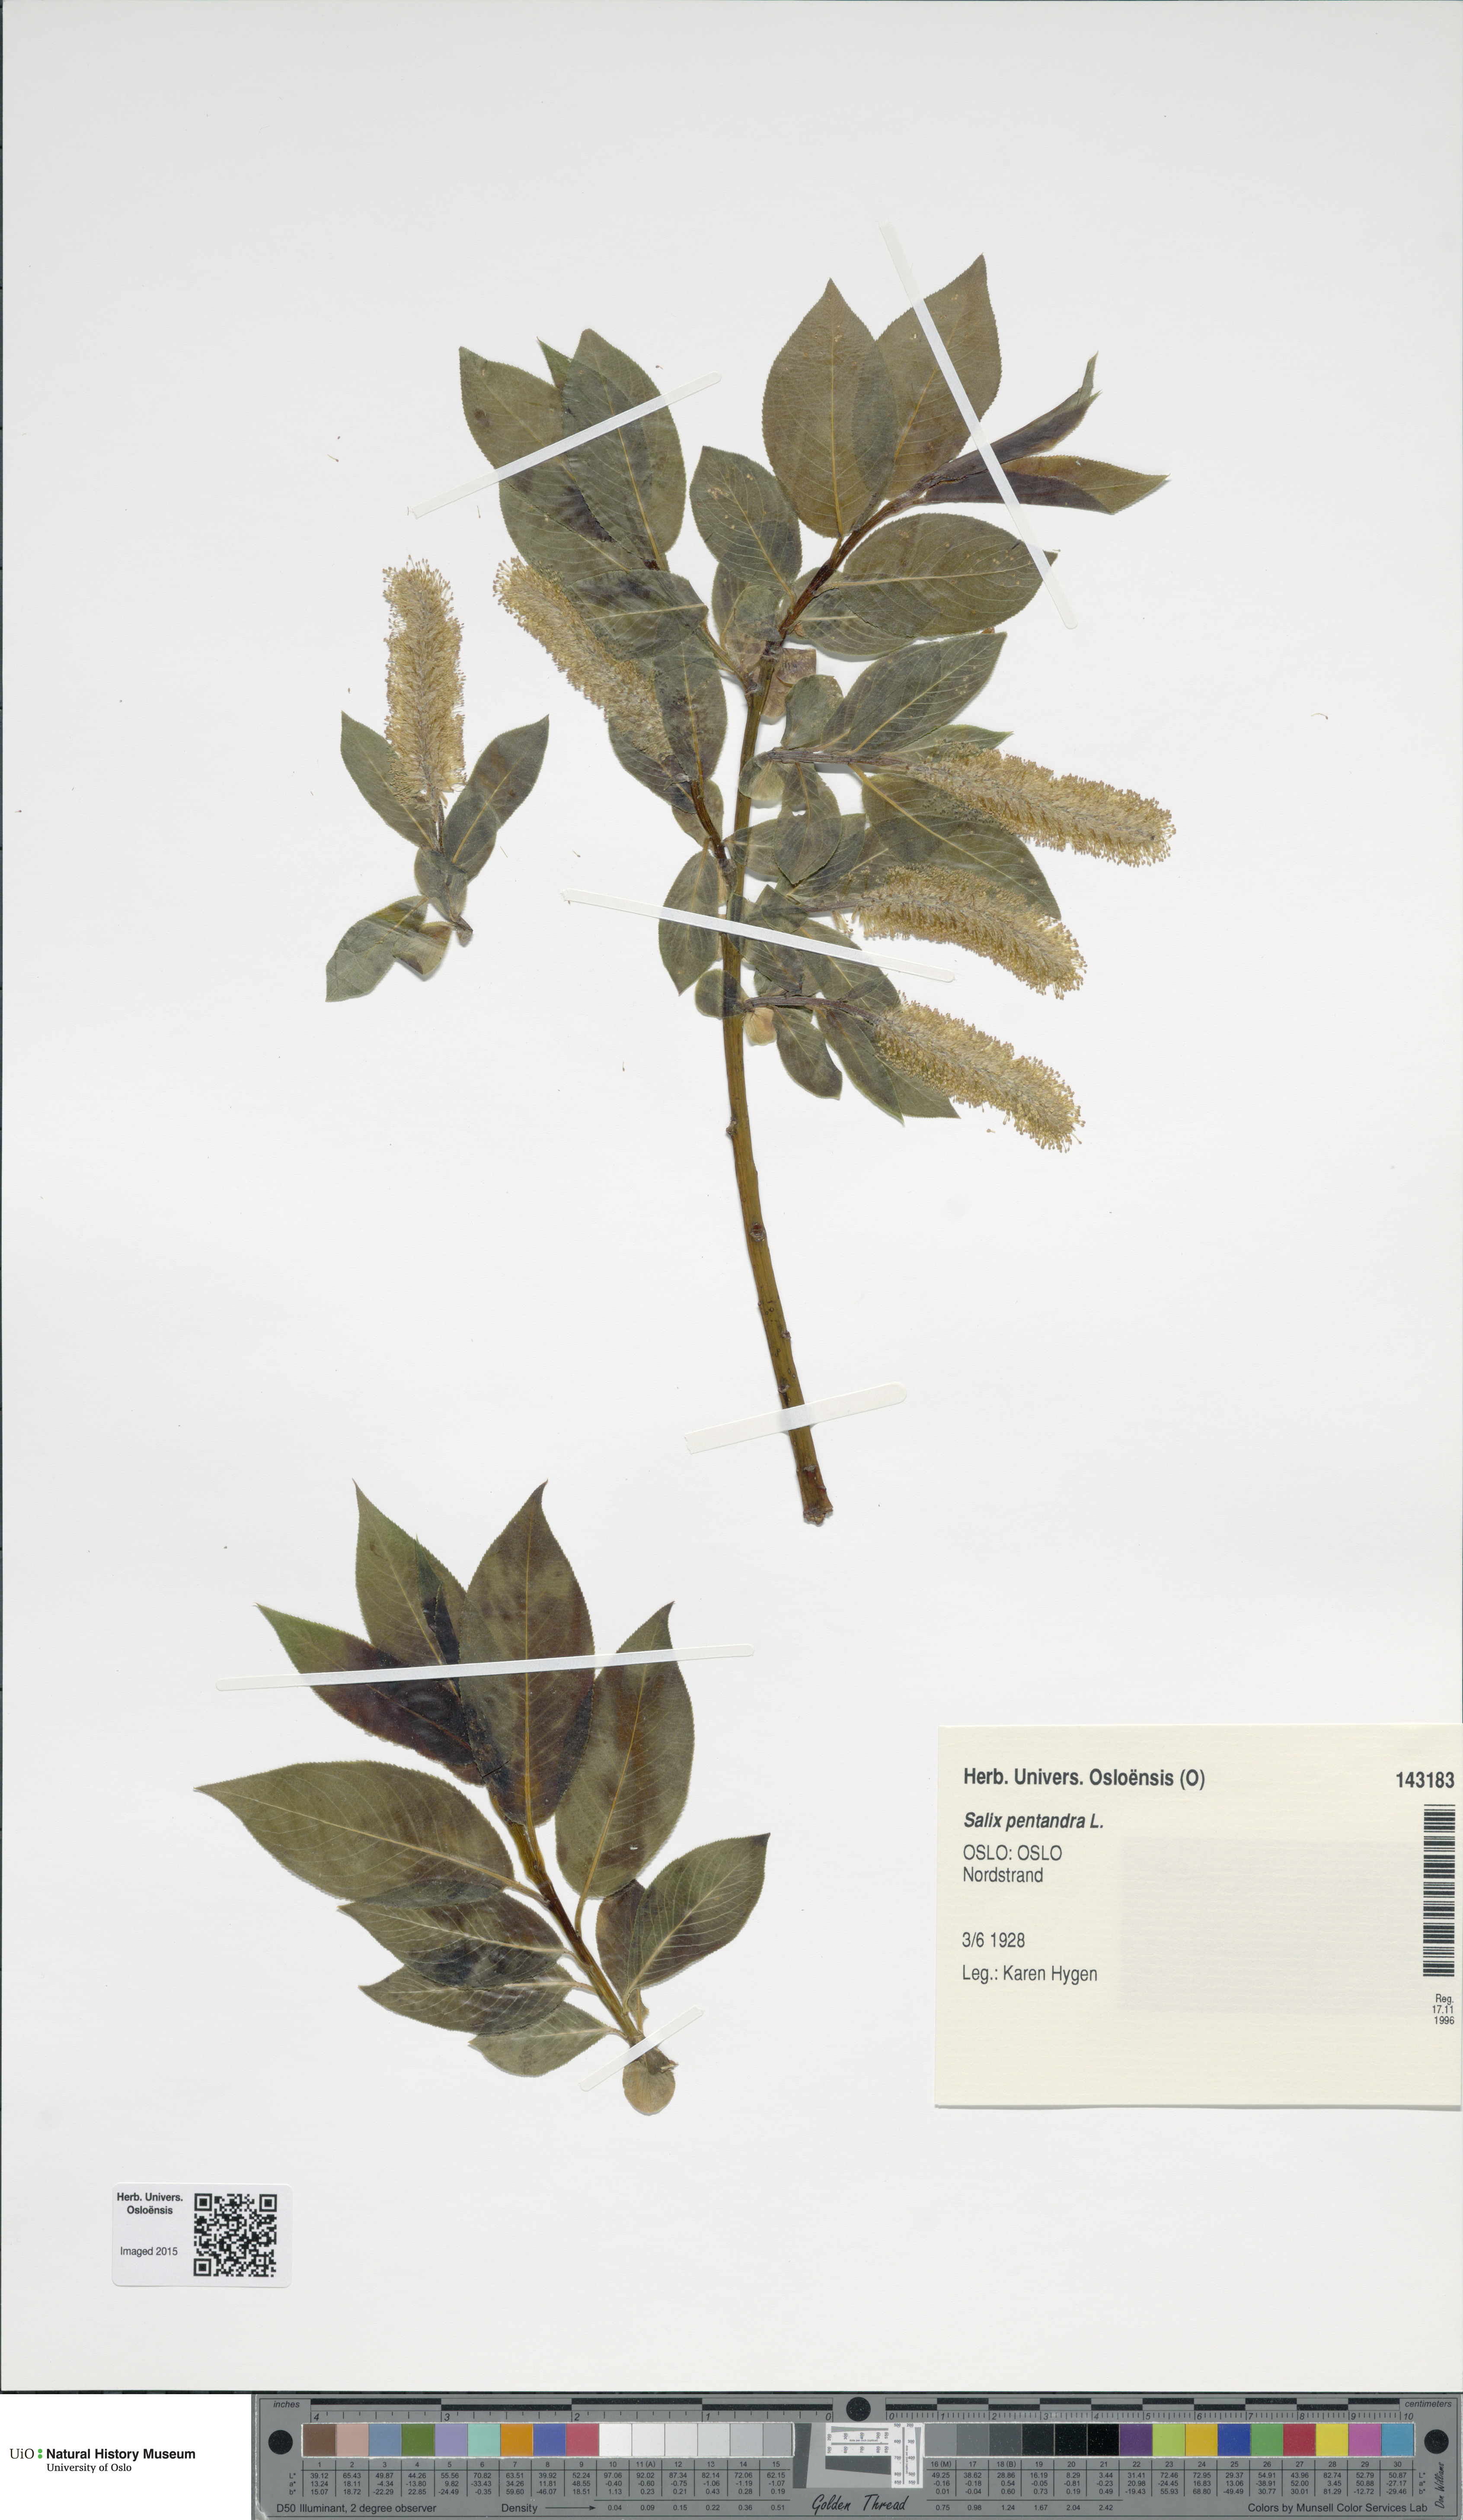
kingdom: Plantae
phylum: Tracheophyta
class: Magnoliopsida
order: Malpighiales
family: Salicaceae
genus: Salix
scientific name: Salix pentandra
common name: Bay willow
